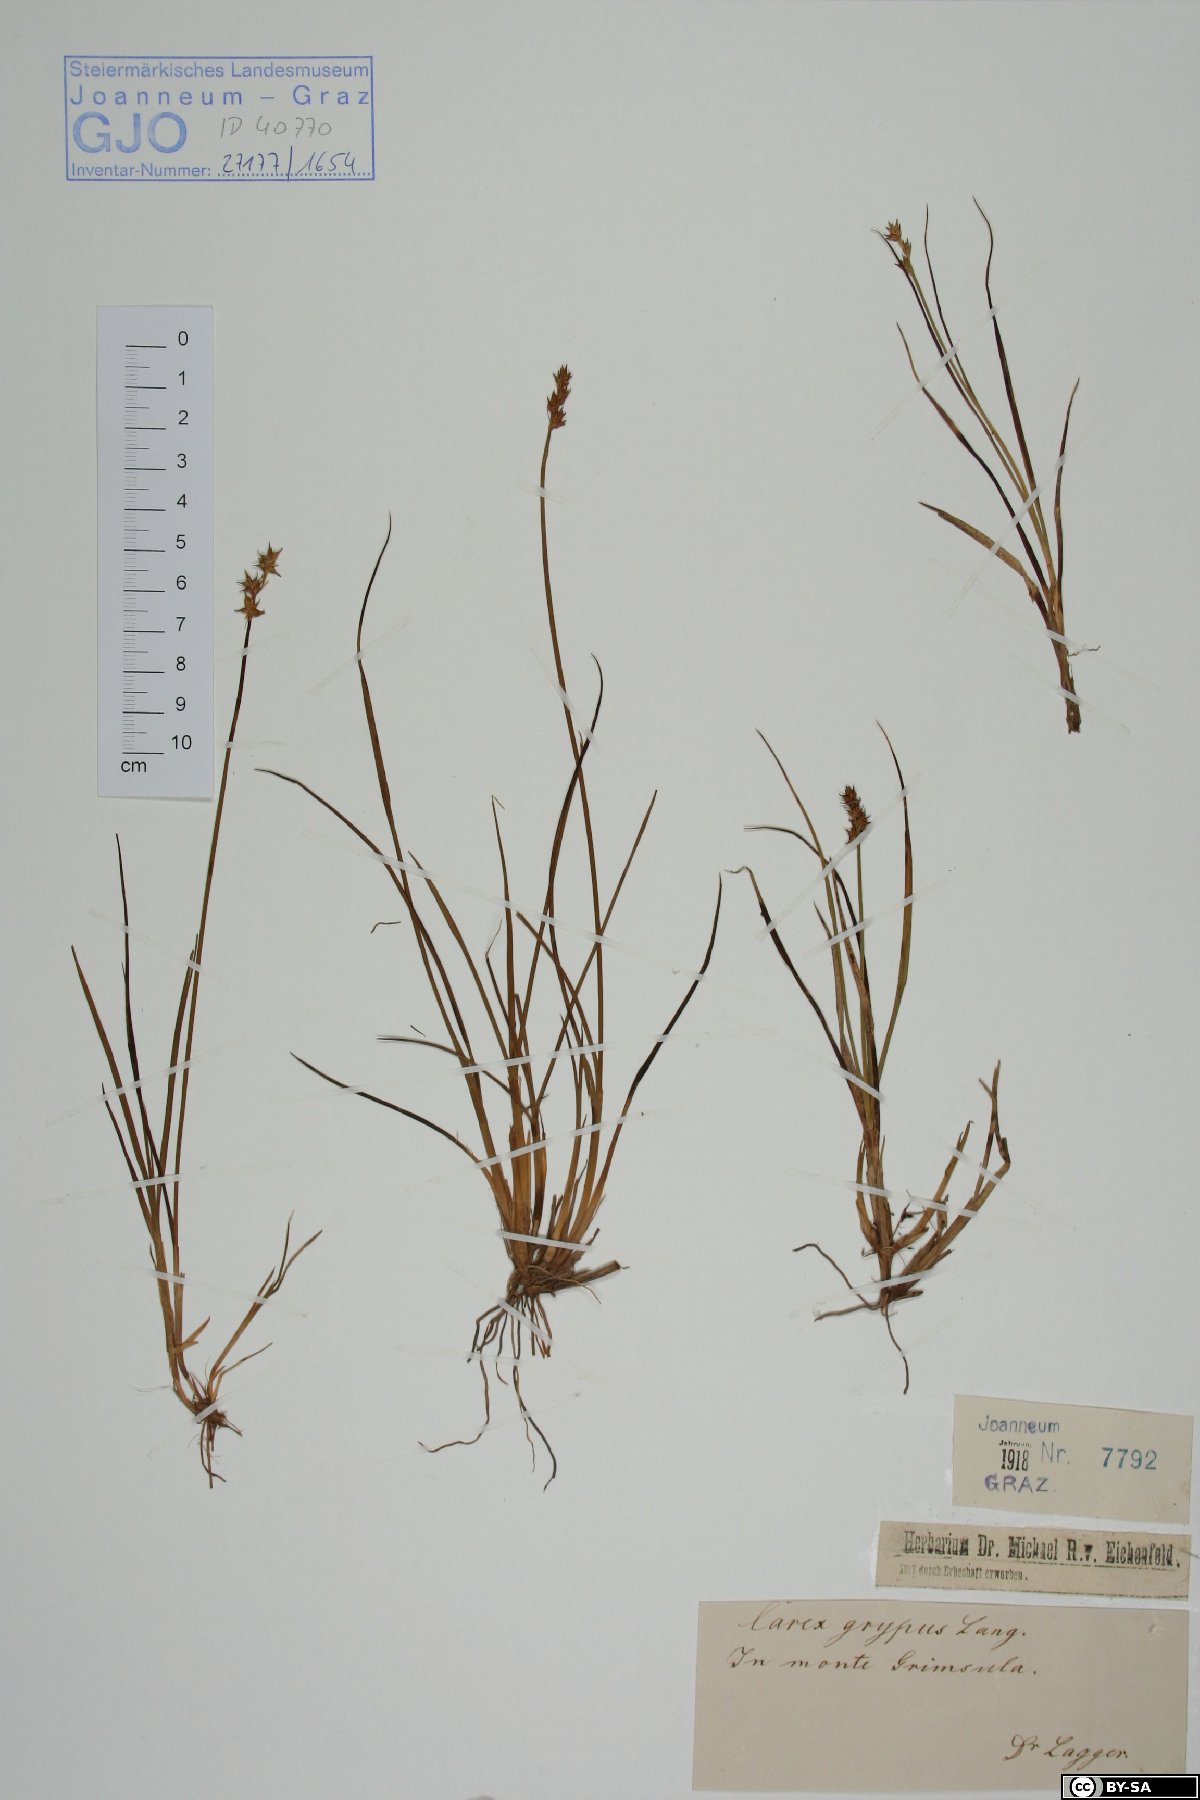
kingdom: Plantae
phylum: Tracheophyta
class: Liliopsida
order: Poales
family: Cyperaceae
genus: Carex
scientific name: Carex echinata
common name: Star sedge
